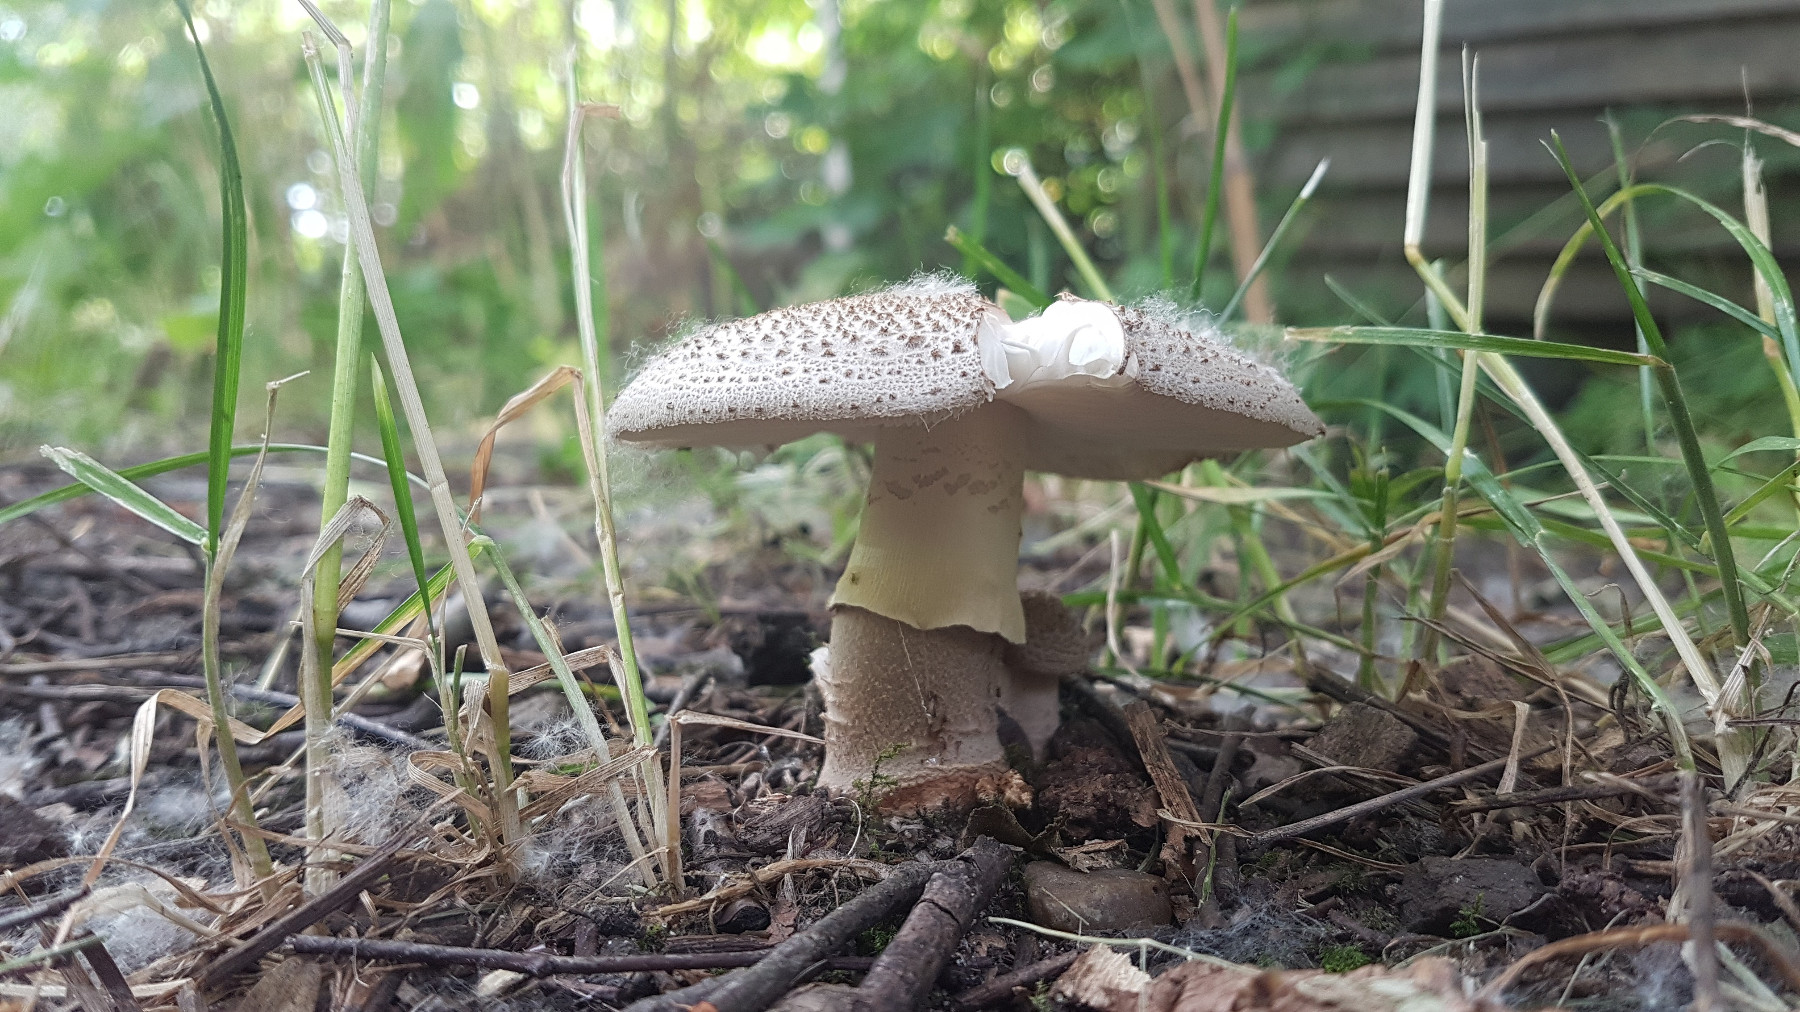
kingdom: Fungi
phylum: Basidiomycota
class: Agaricomycetes
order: Agaricales
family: Amanitaceae
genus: Amanita
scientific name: Amanita
